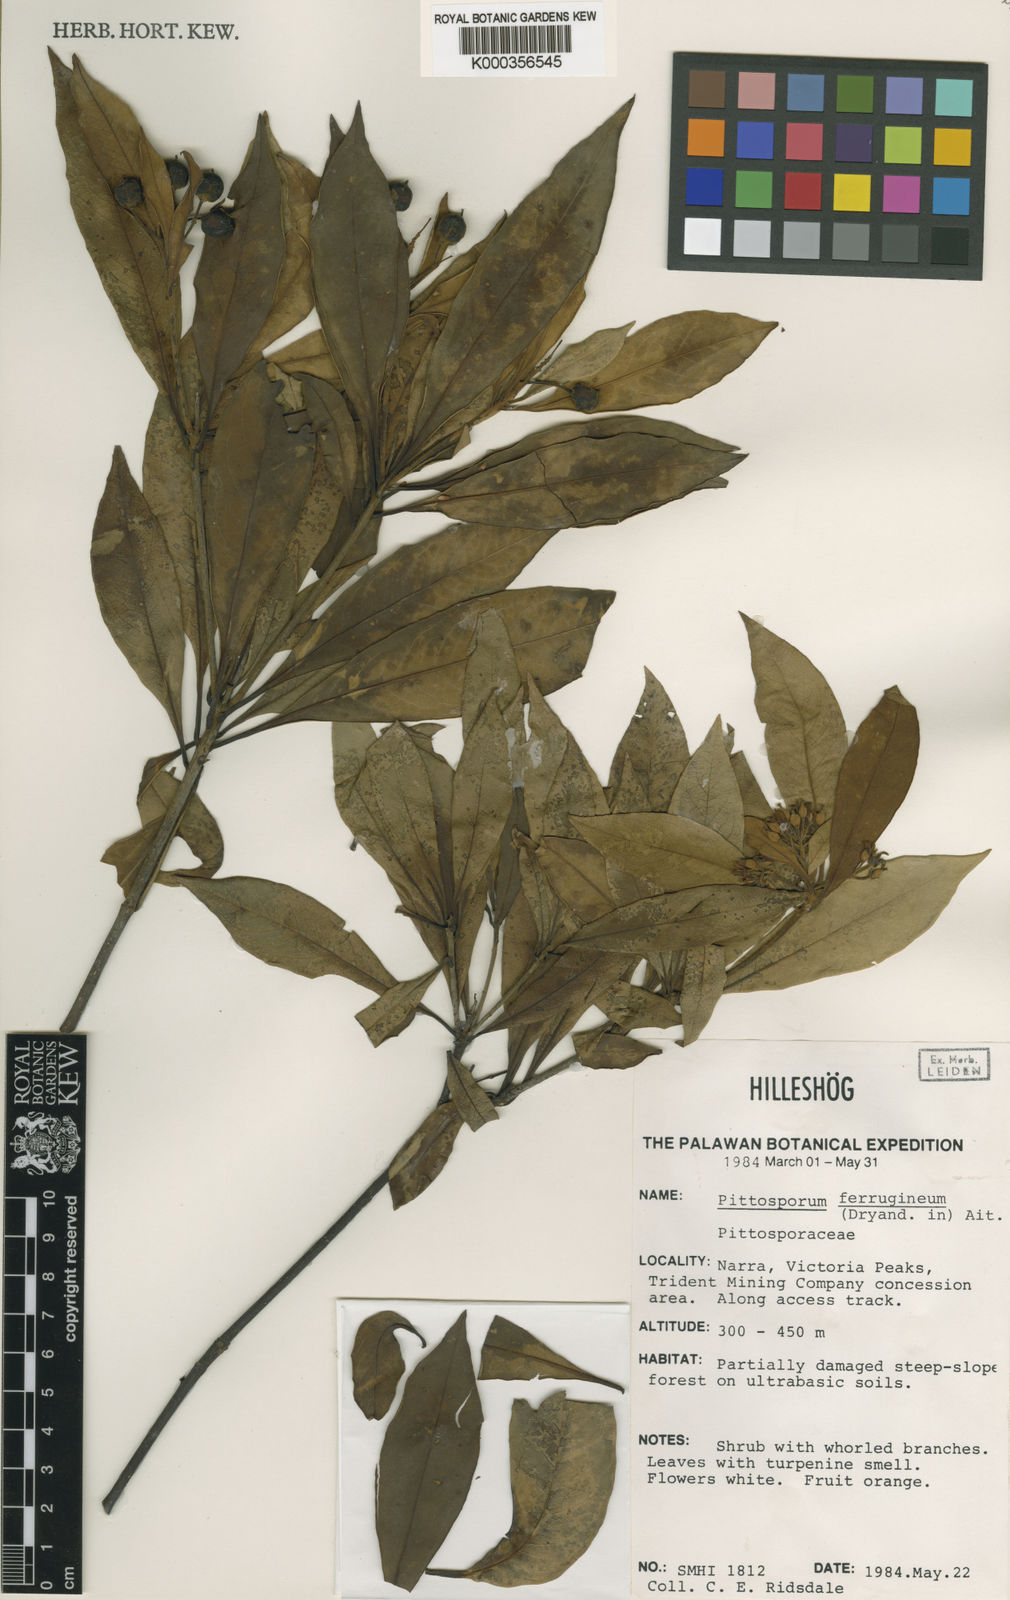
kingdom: Plantae
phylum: Tracheophyta
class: Magnoliopsida
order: Apiales
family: Pittosporaceae
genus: Pittosporum
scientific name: Pittosporum ferrugineum
